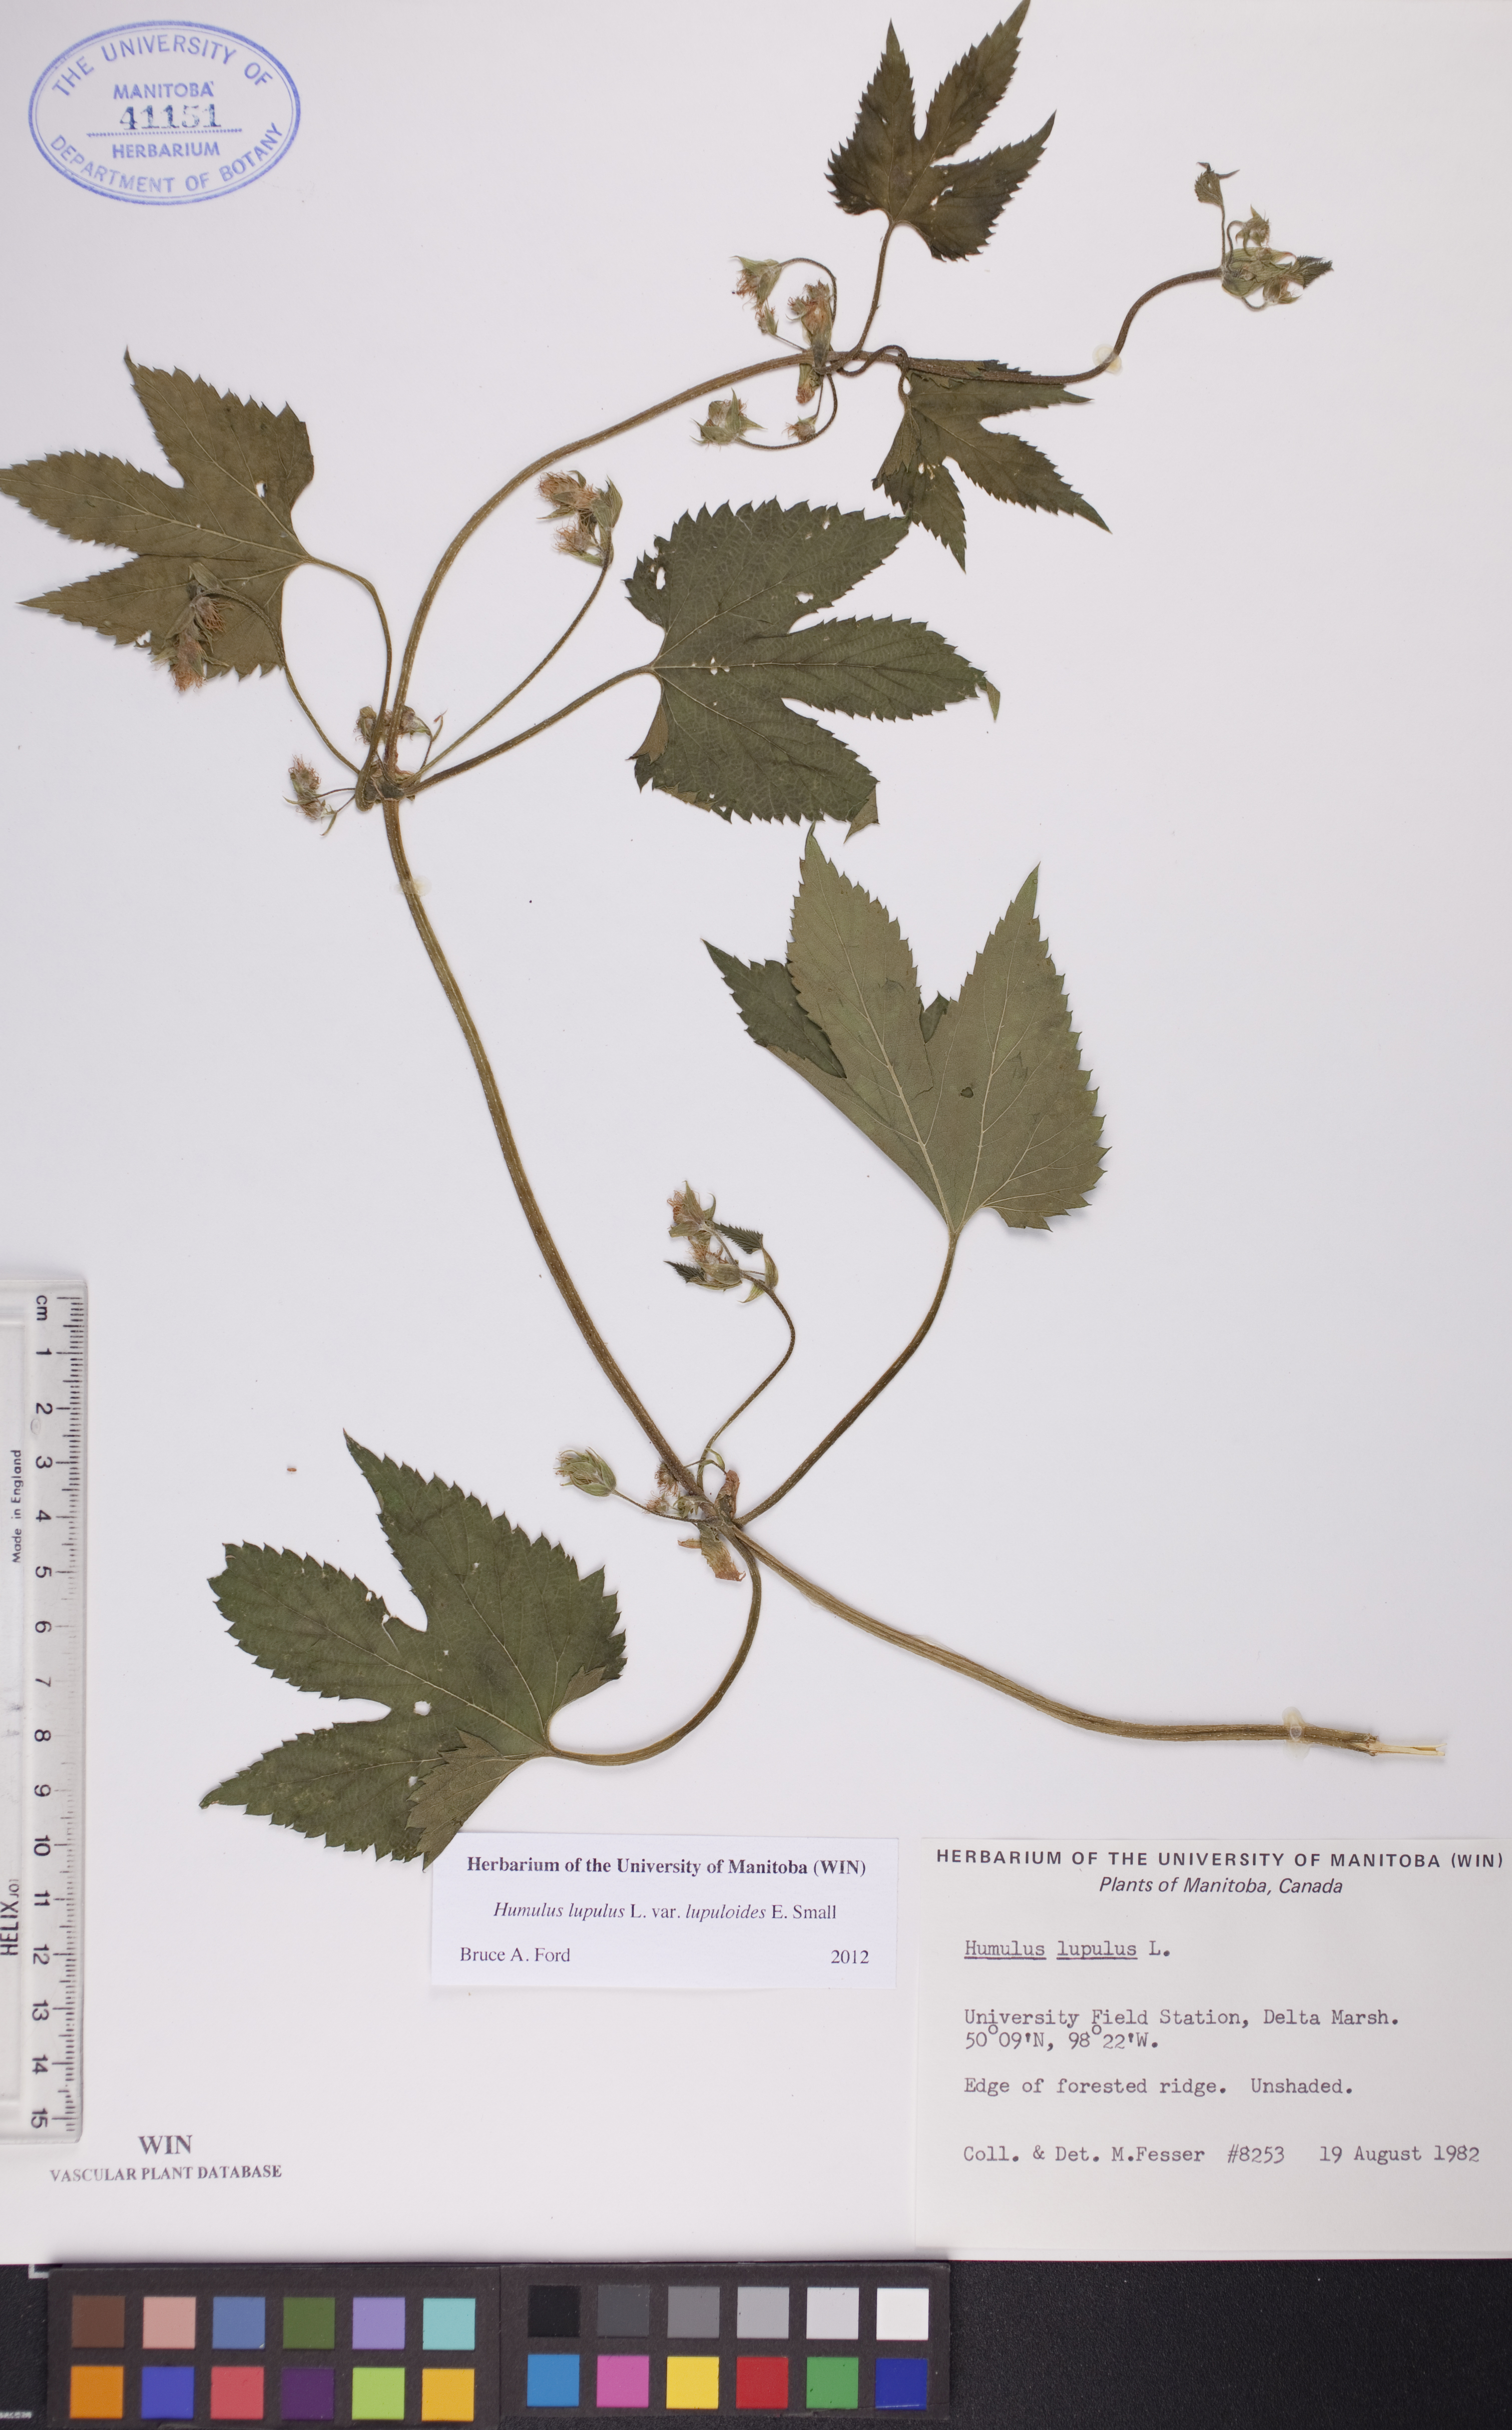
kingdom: Plantae
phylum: Tracheophyta
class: Magnoliopsida
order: Rosales
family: Cannabaceae
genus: Humulus
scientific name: Humulus americanus
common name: American hops
